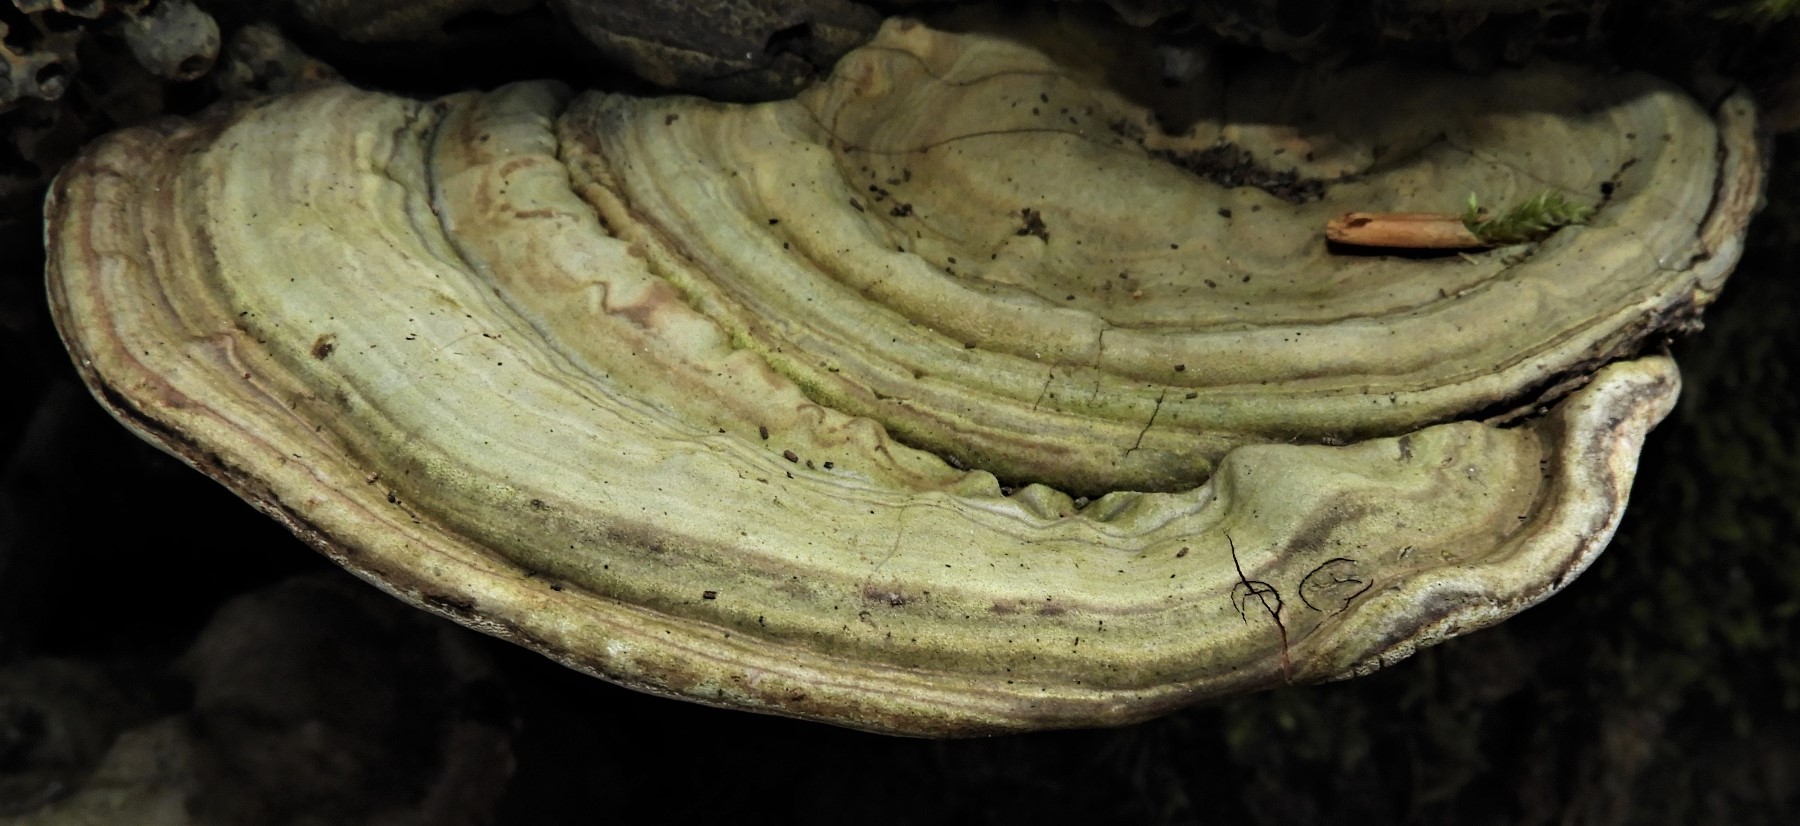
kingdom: Fungi
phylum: Basidiomycota
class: Agaricomycetes
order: Polyporales
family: Polyporaceae
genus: Ganoderma
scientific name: Ganoderma applanatum
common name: flad lakporesvamp
